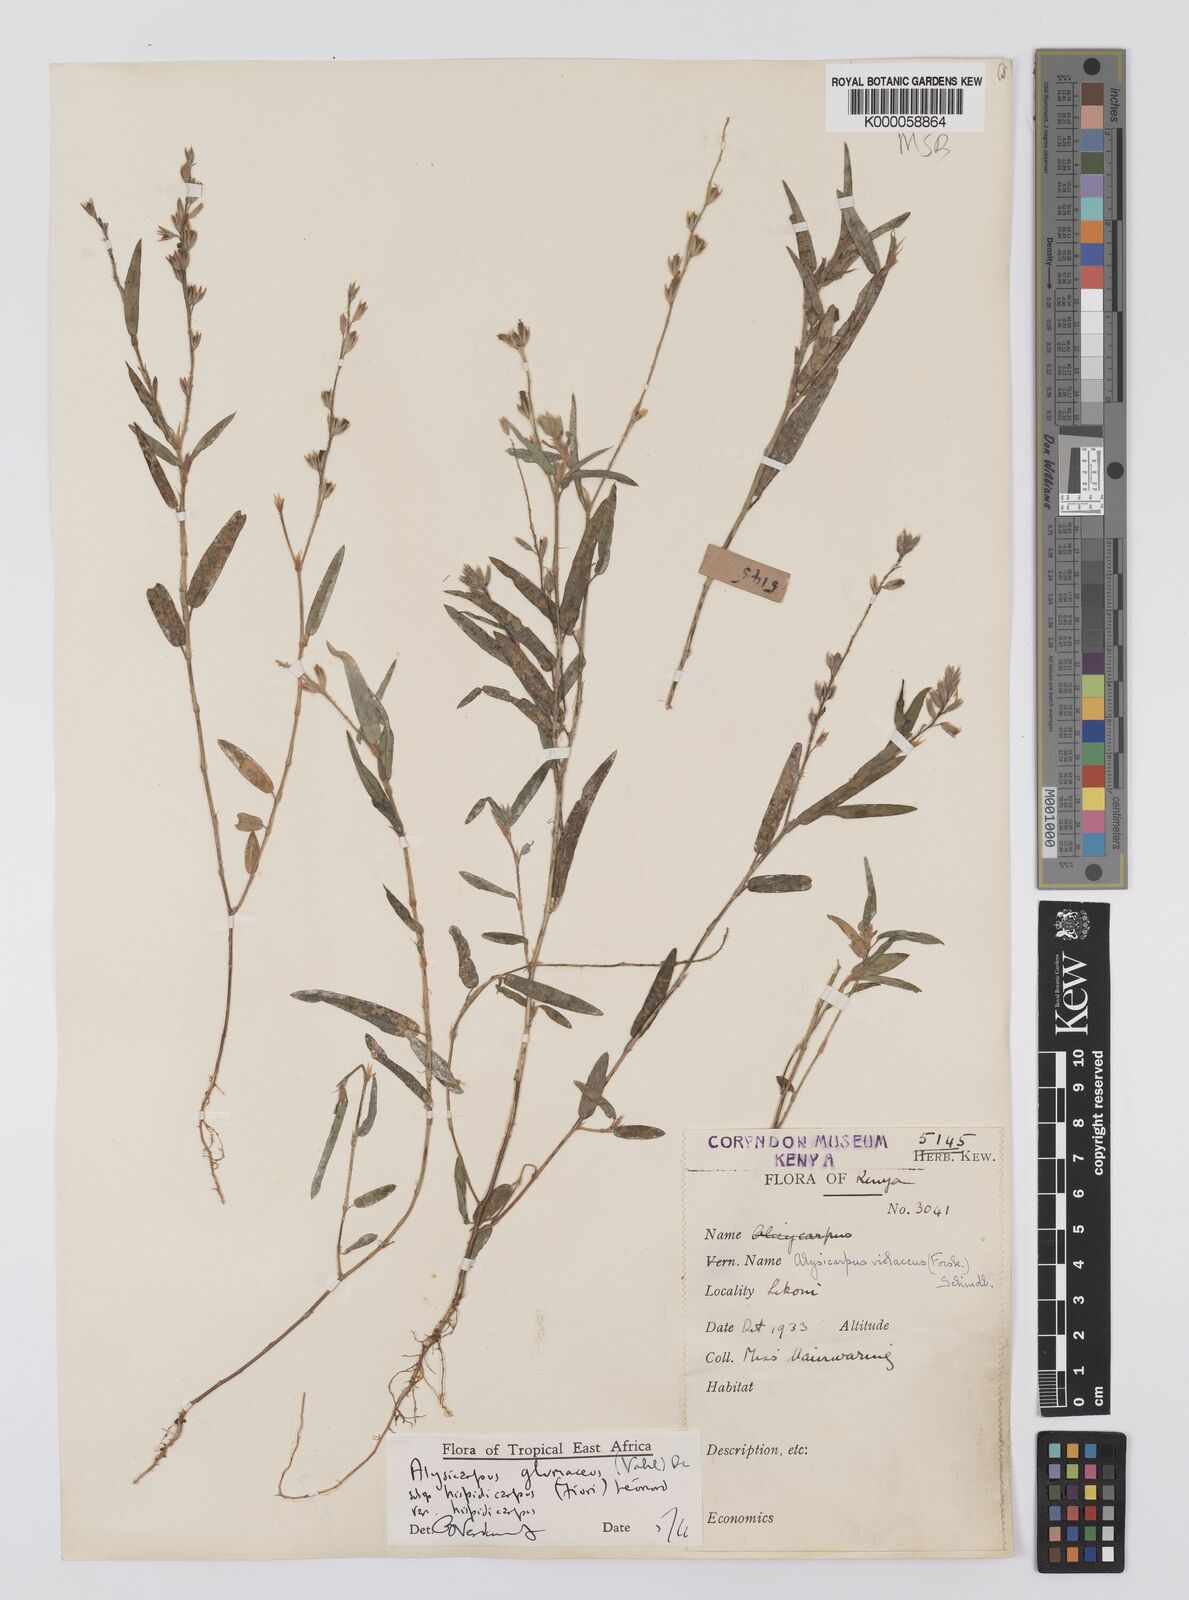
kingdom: Plantae
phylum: Tracheophyta
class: Magnoliopsida
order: Fabales
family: Fabaceae
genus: Alysicarpus
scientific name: Alysicarpus glumaceus
